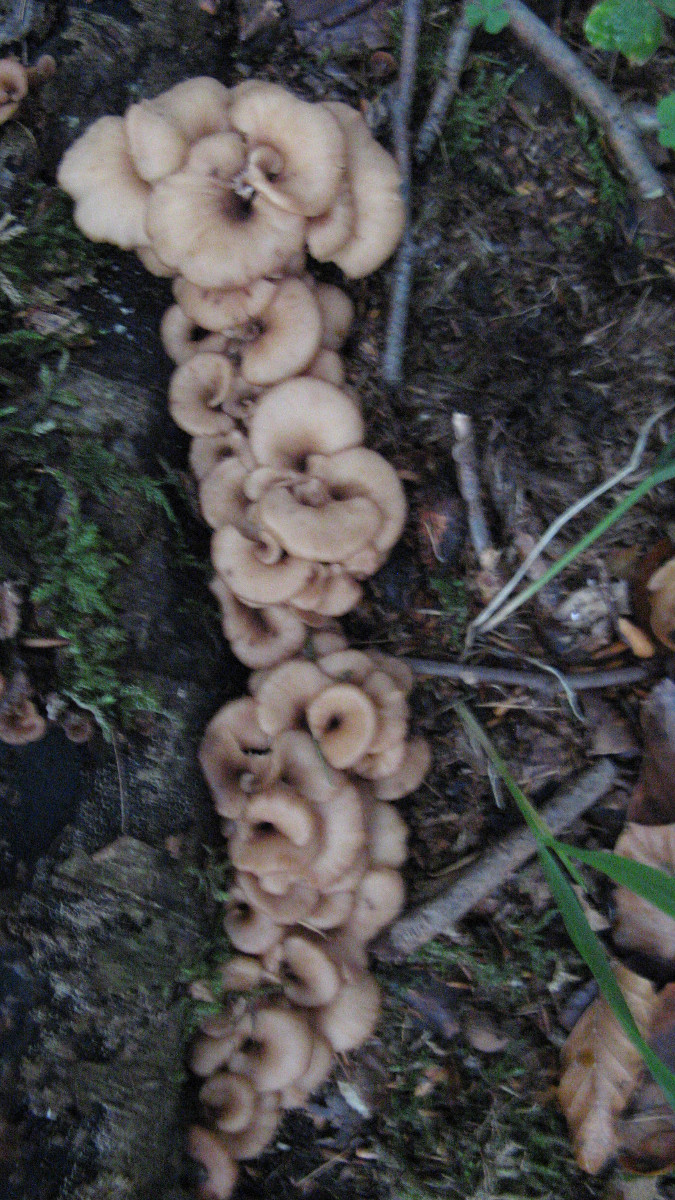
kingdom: Fungi
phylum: Basidiomycota
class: Agaricomycetes
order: Russulales
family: Auriscalpiaceae
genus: Lentinellus
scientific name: Lentinellus cochleatus
